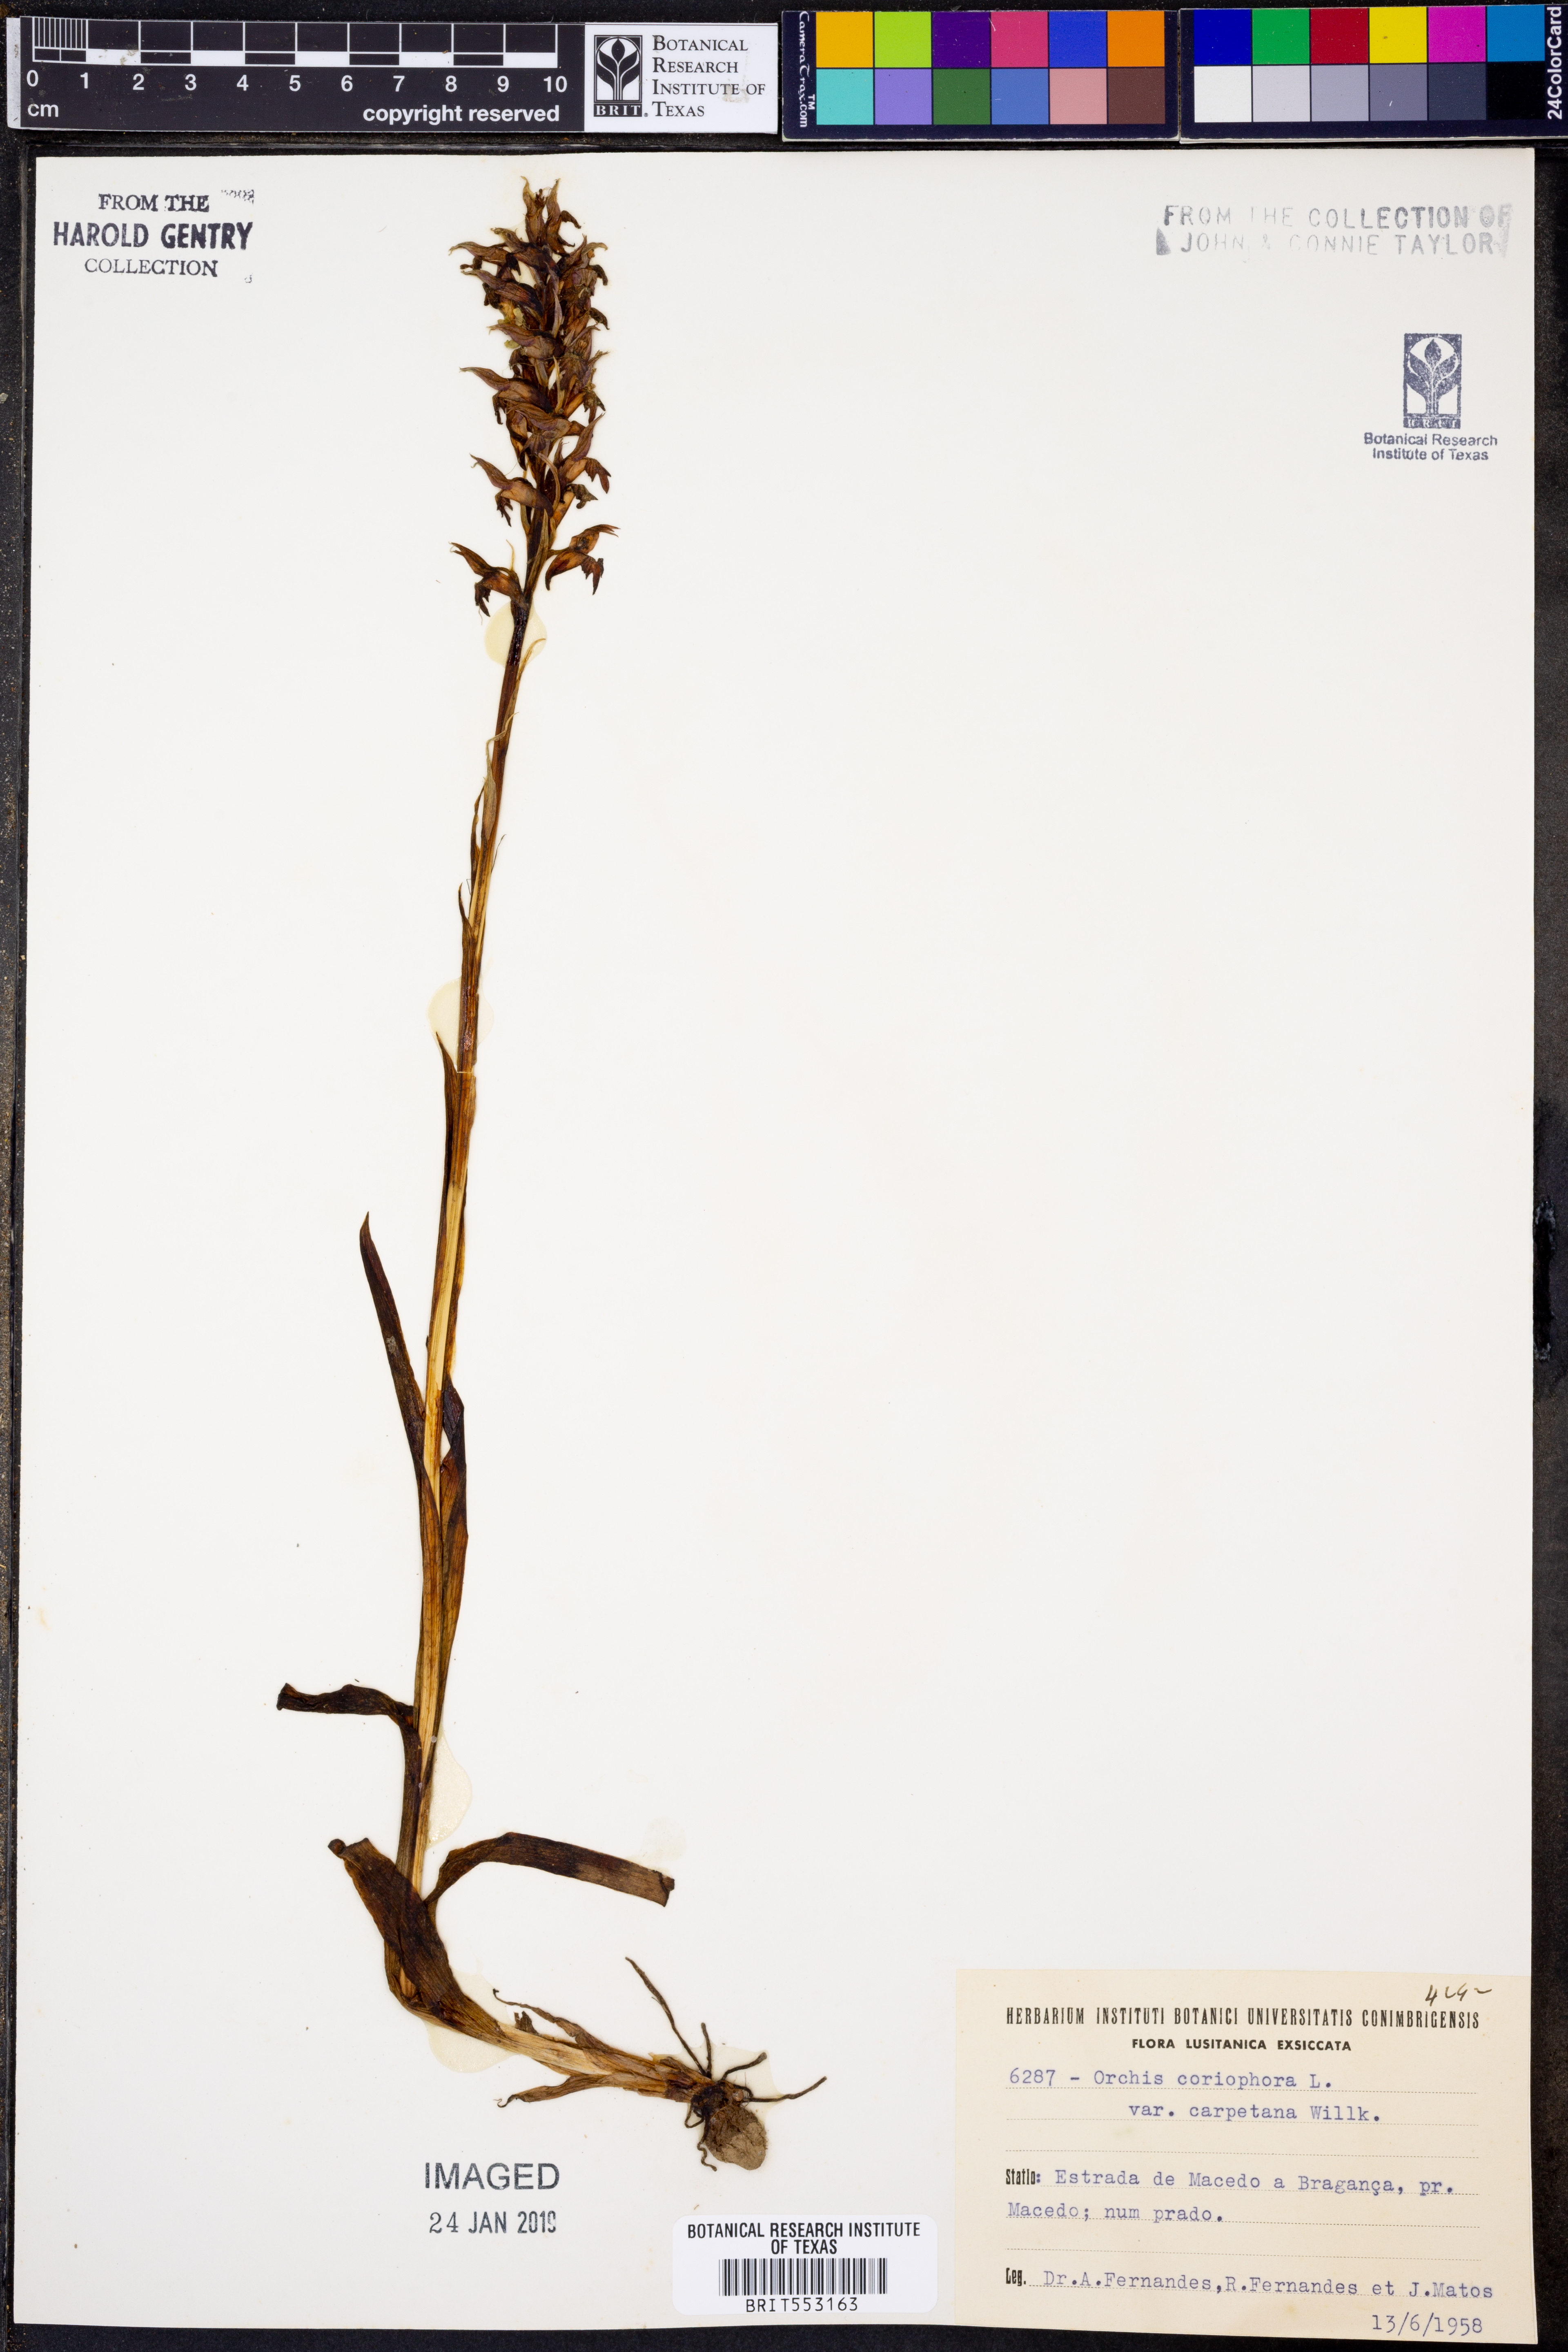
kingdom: Plantae
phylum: Tracheophyta
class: Liliopsida
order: Asparagales
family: Orchidaceae
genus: Anacamptis
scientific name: Anacamptis coriophora
